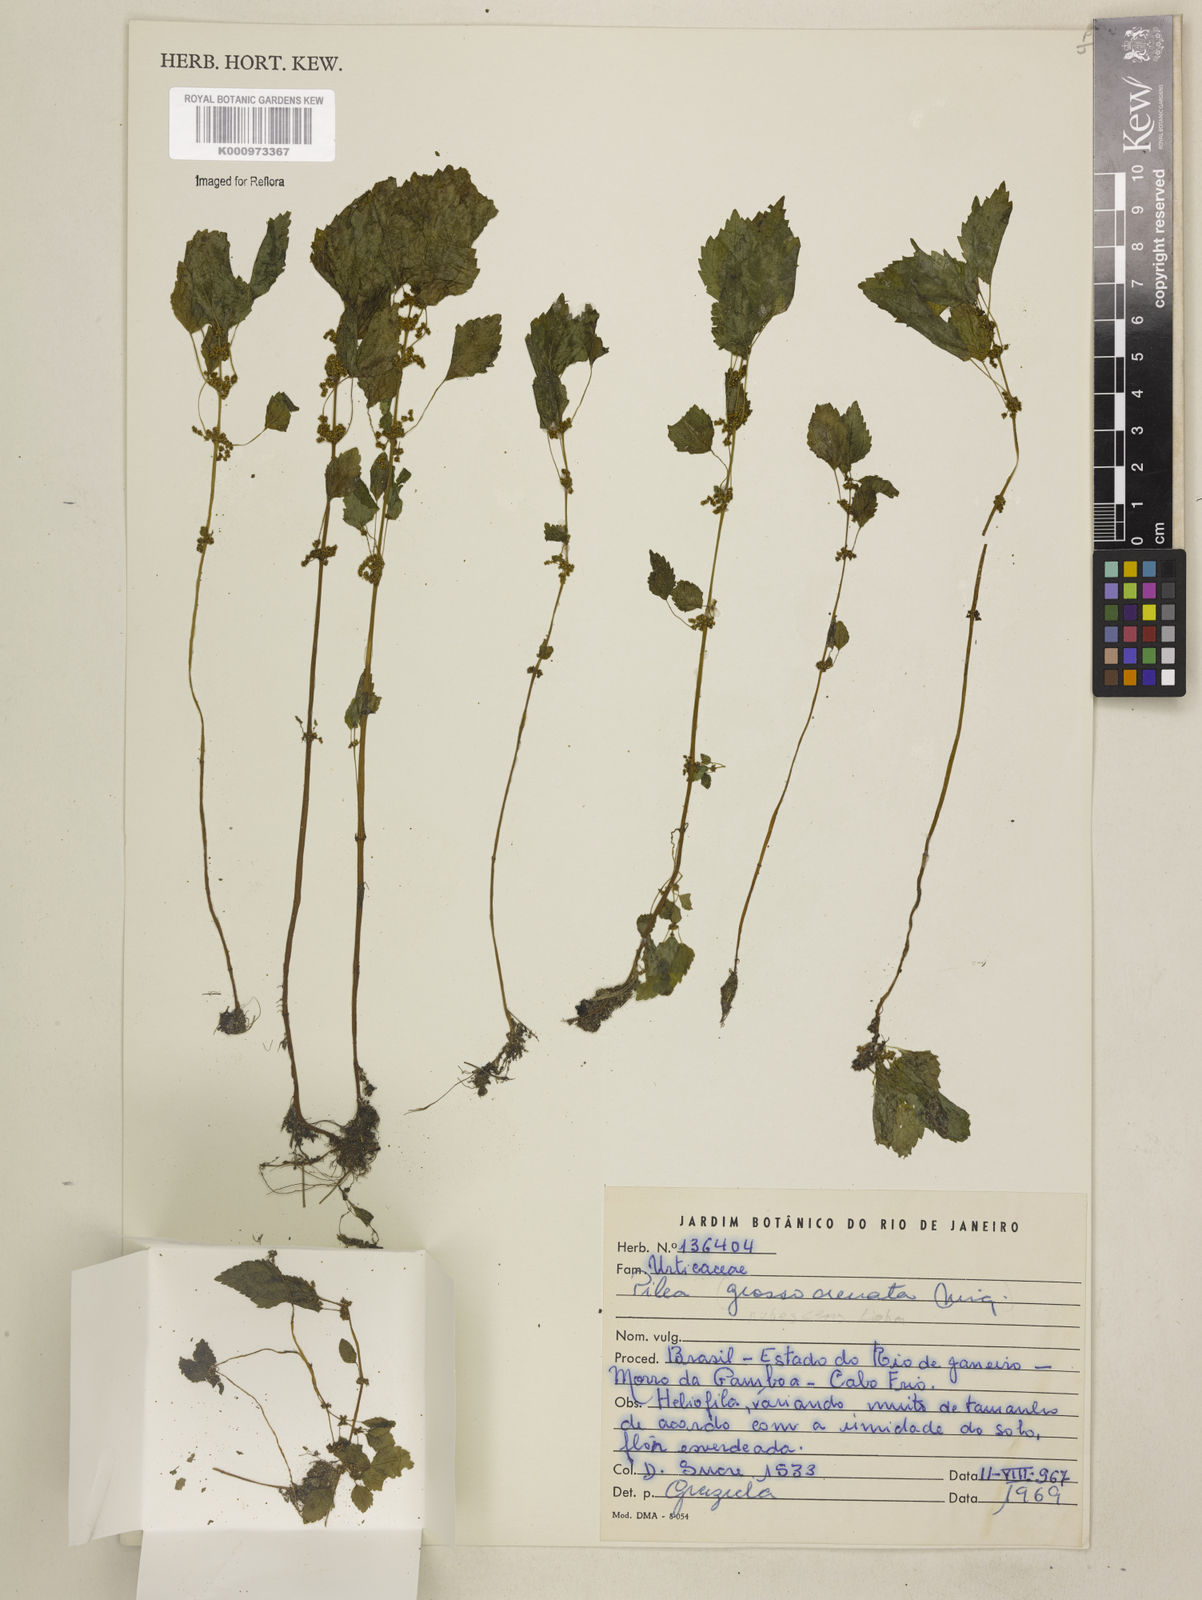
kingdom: Plantae
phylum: Tracheophyta
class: Magnoliopsida
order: Rosales
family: Urticaceae
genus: Pilea
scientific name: Pilea hyalina
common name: Virdrillo
